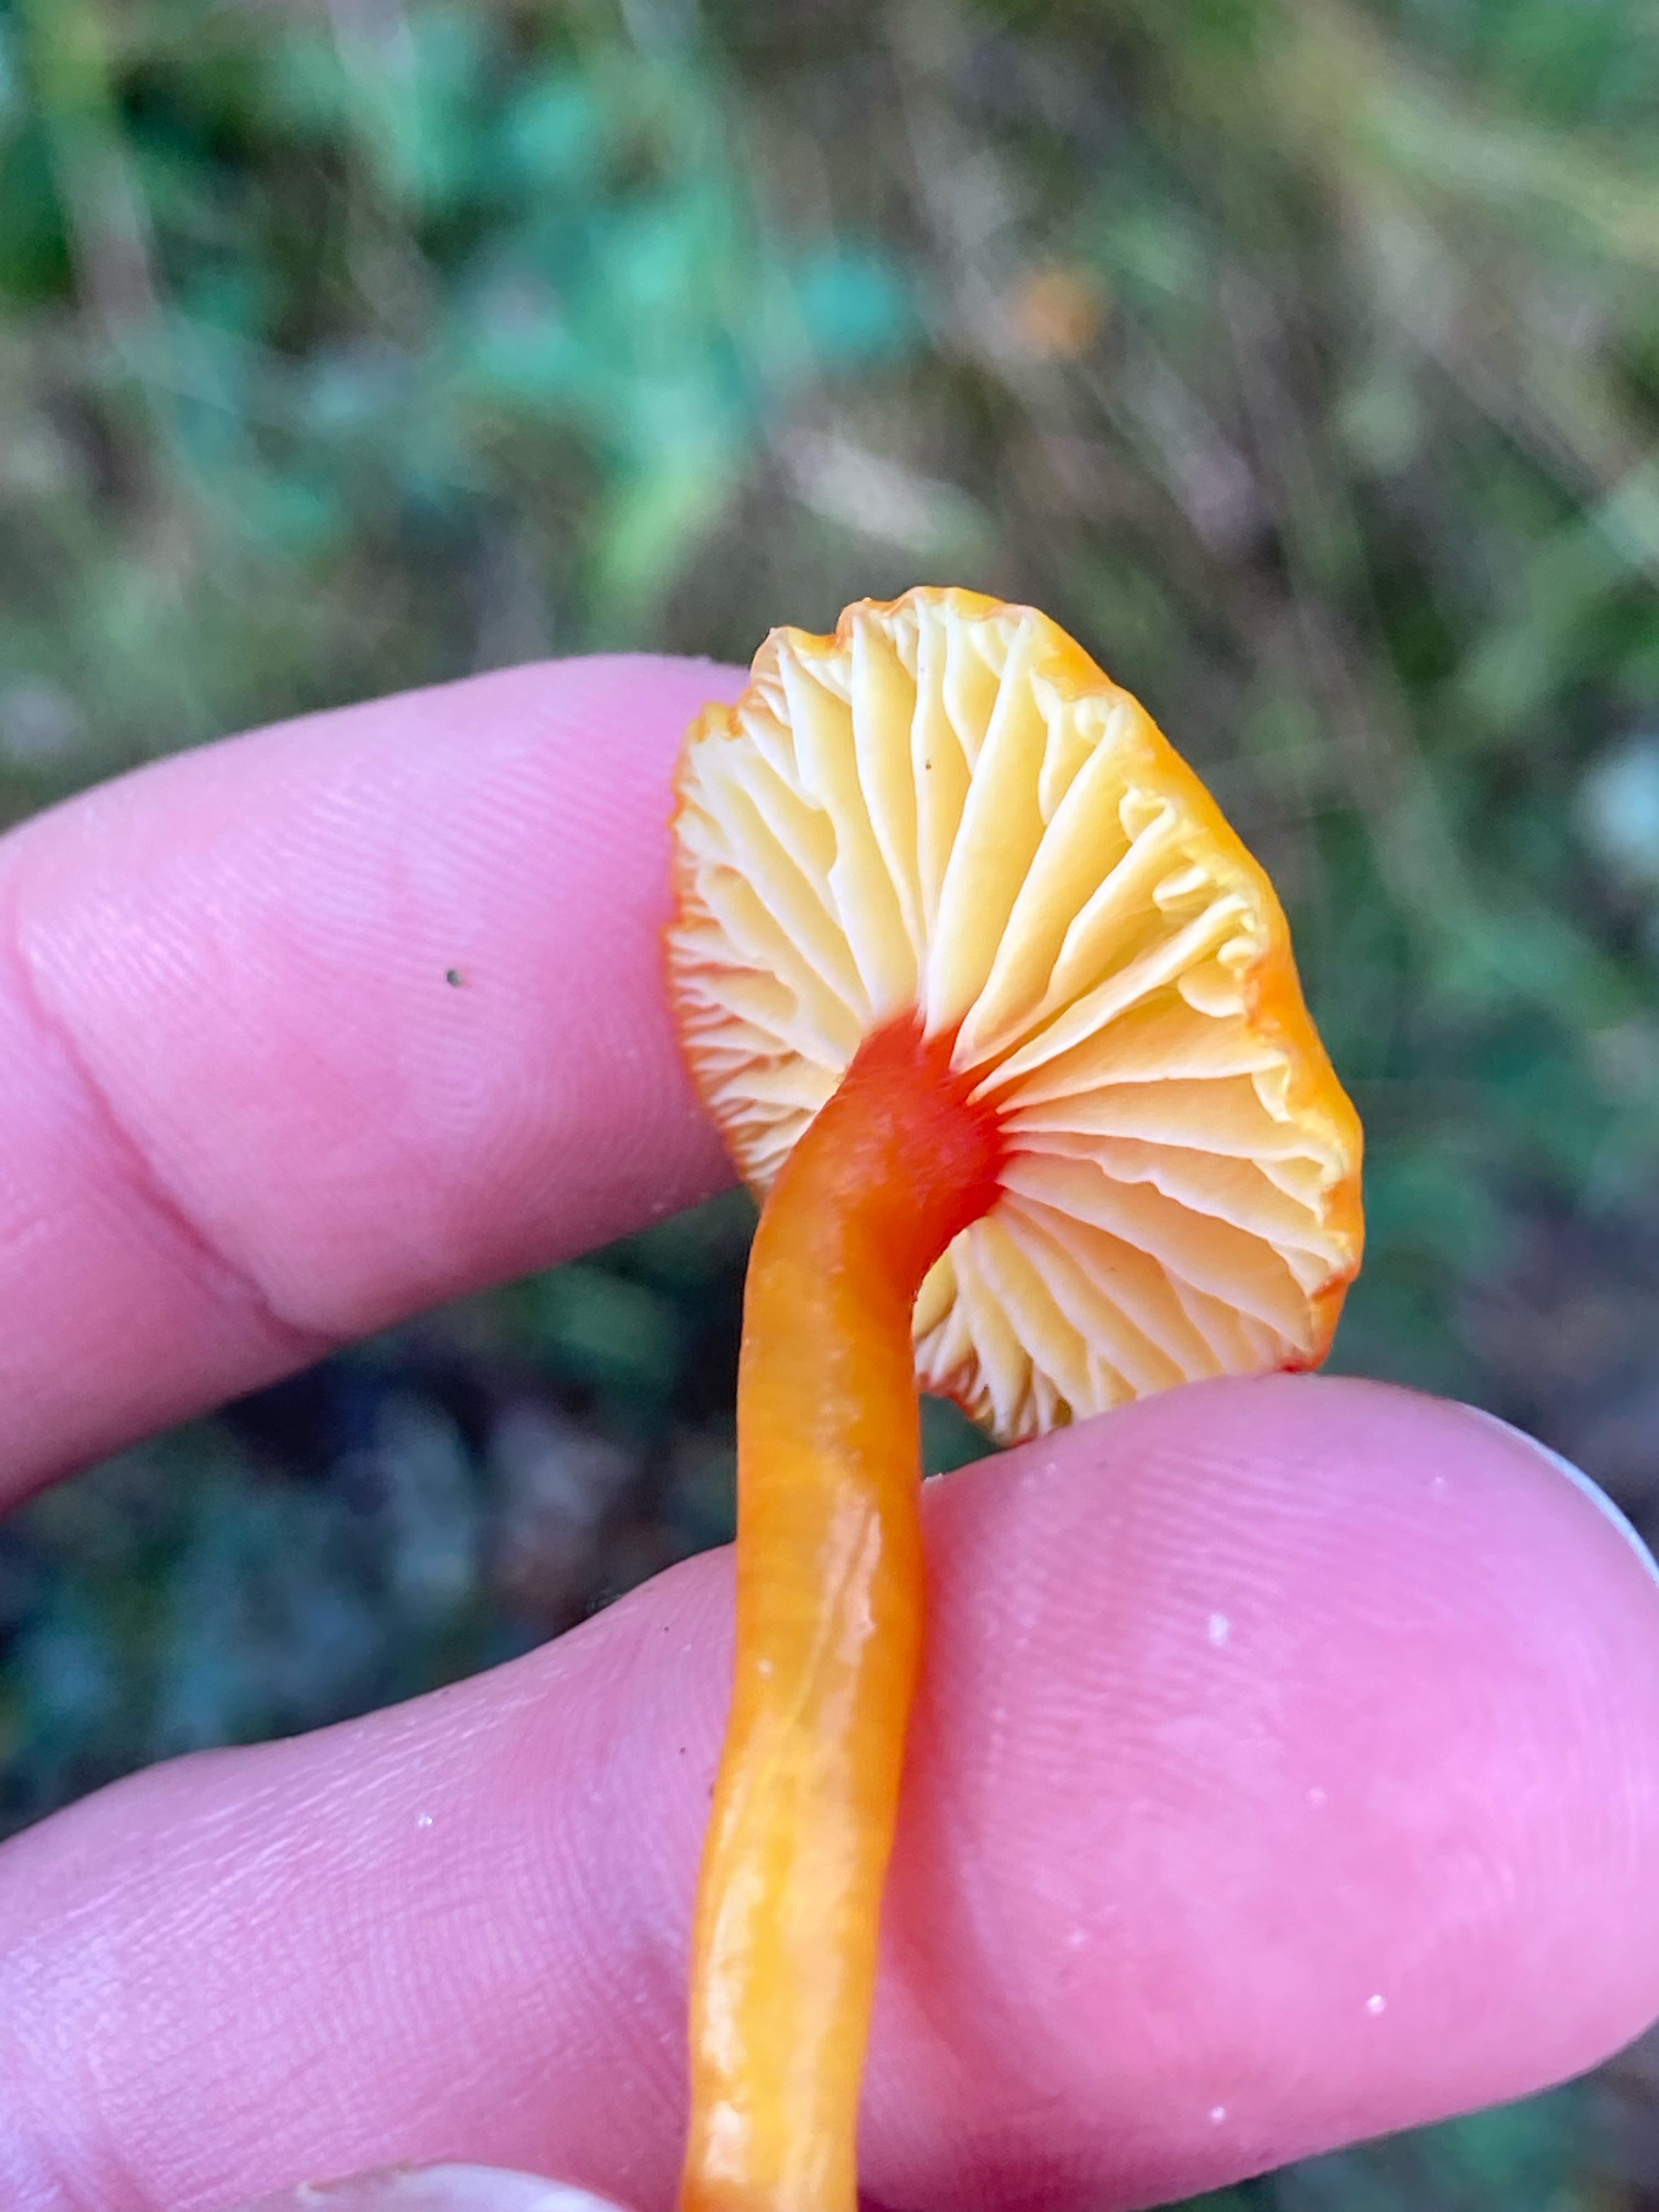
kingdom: Fungi
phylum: Basidiomycota
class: Agaricomycetes
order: Agaricales
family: Hygrophoraceae
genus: Hygrocybe
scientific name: Hygrocybe insipida
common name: liden vokshat
